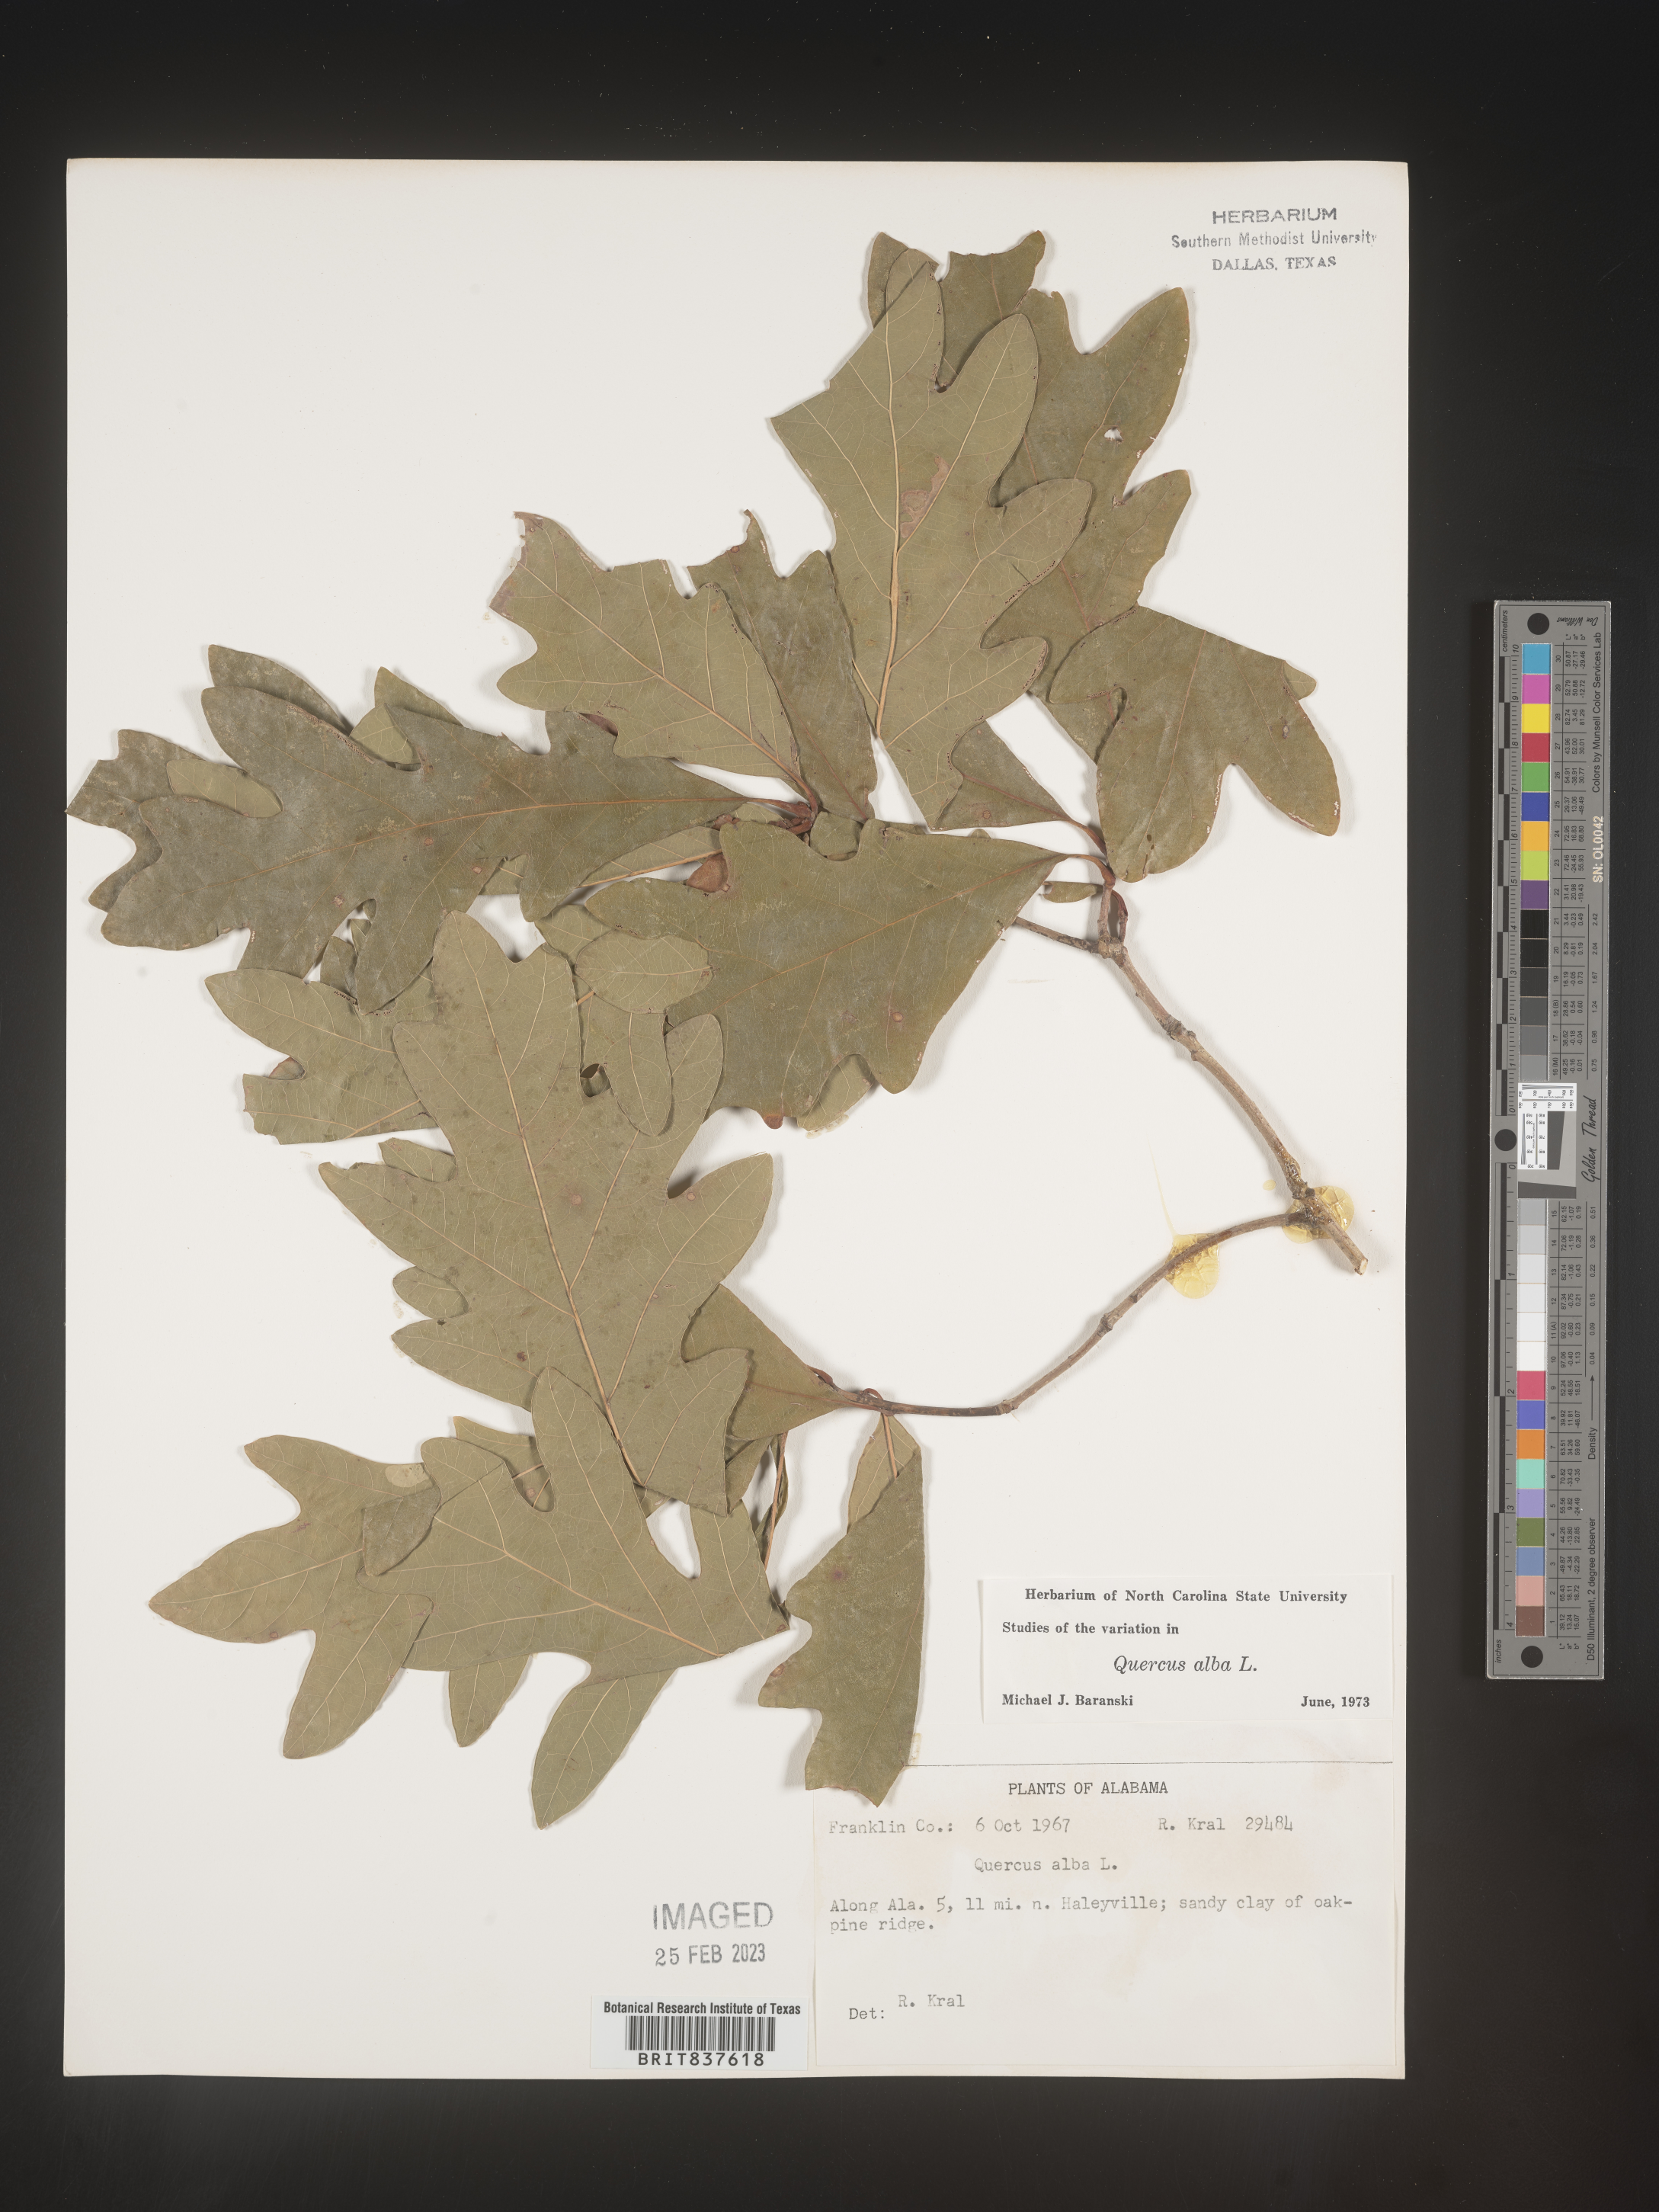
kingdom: Plantae
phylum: Tracheophyta
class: Magnoliopsida
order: Fagales
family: Fagaceae
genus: Quercus
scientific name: Quercus alba
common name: White oak
